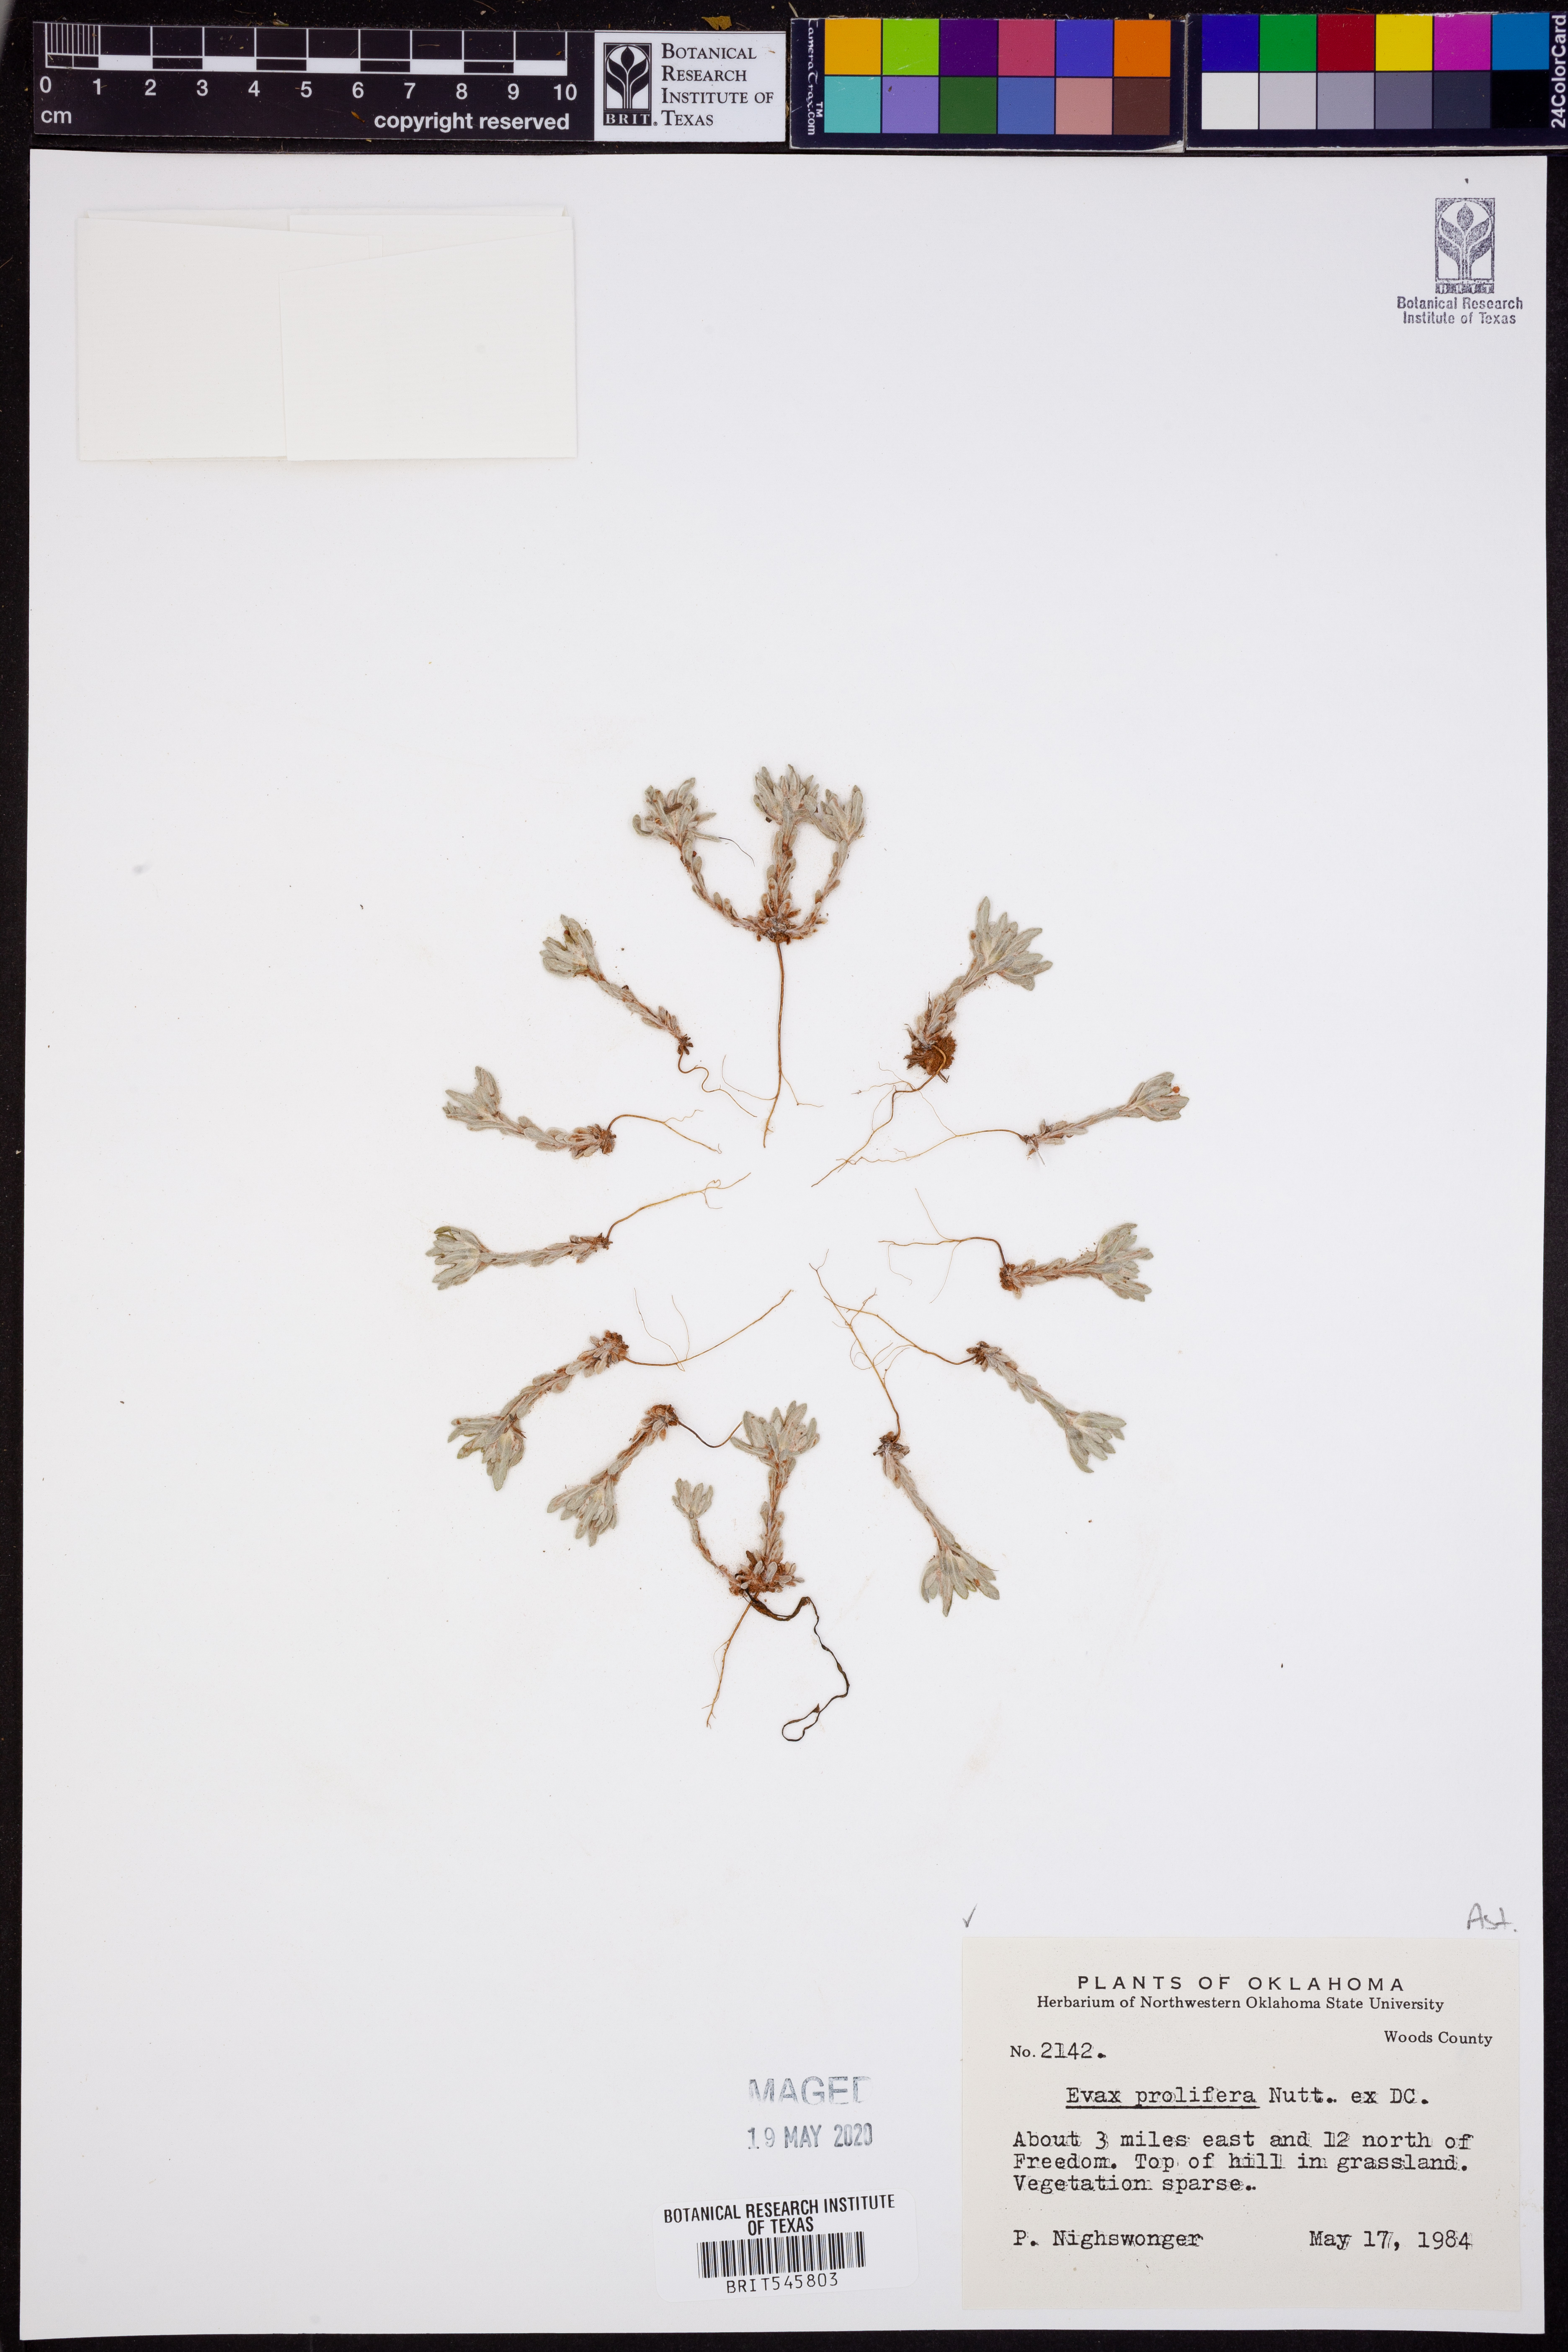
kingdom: Plantae
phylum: Tracheophyta
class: Magnoliopsida
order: Asterales
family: Asteraceae
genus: Diaperia
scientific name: Diaperia prolifera
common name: Big-head rabbit-tobacco
